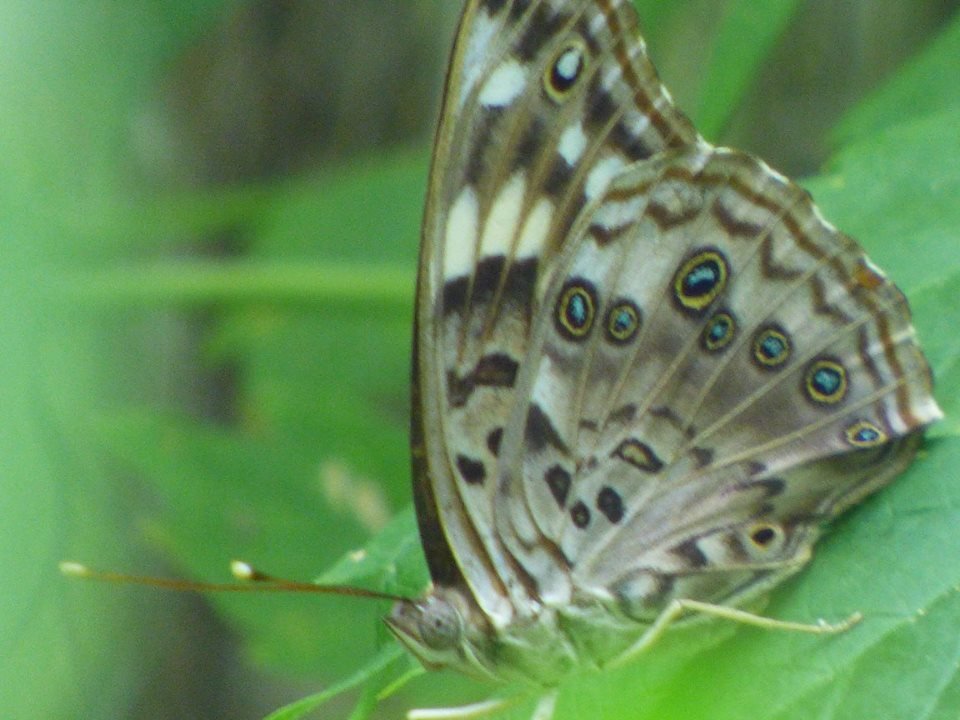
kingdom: Animalia
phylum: Arthropoda
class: Insecta
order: Lepidoptera
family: Nymphalidae
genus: Asterocampa
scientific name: Asterocampa celtis
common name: Hackberry Emperor
